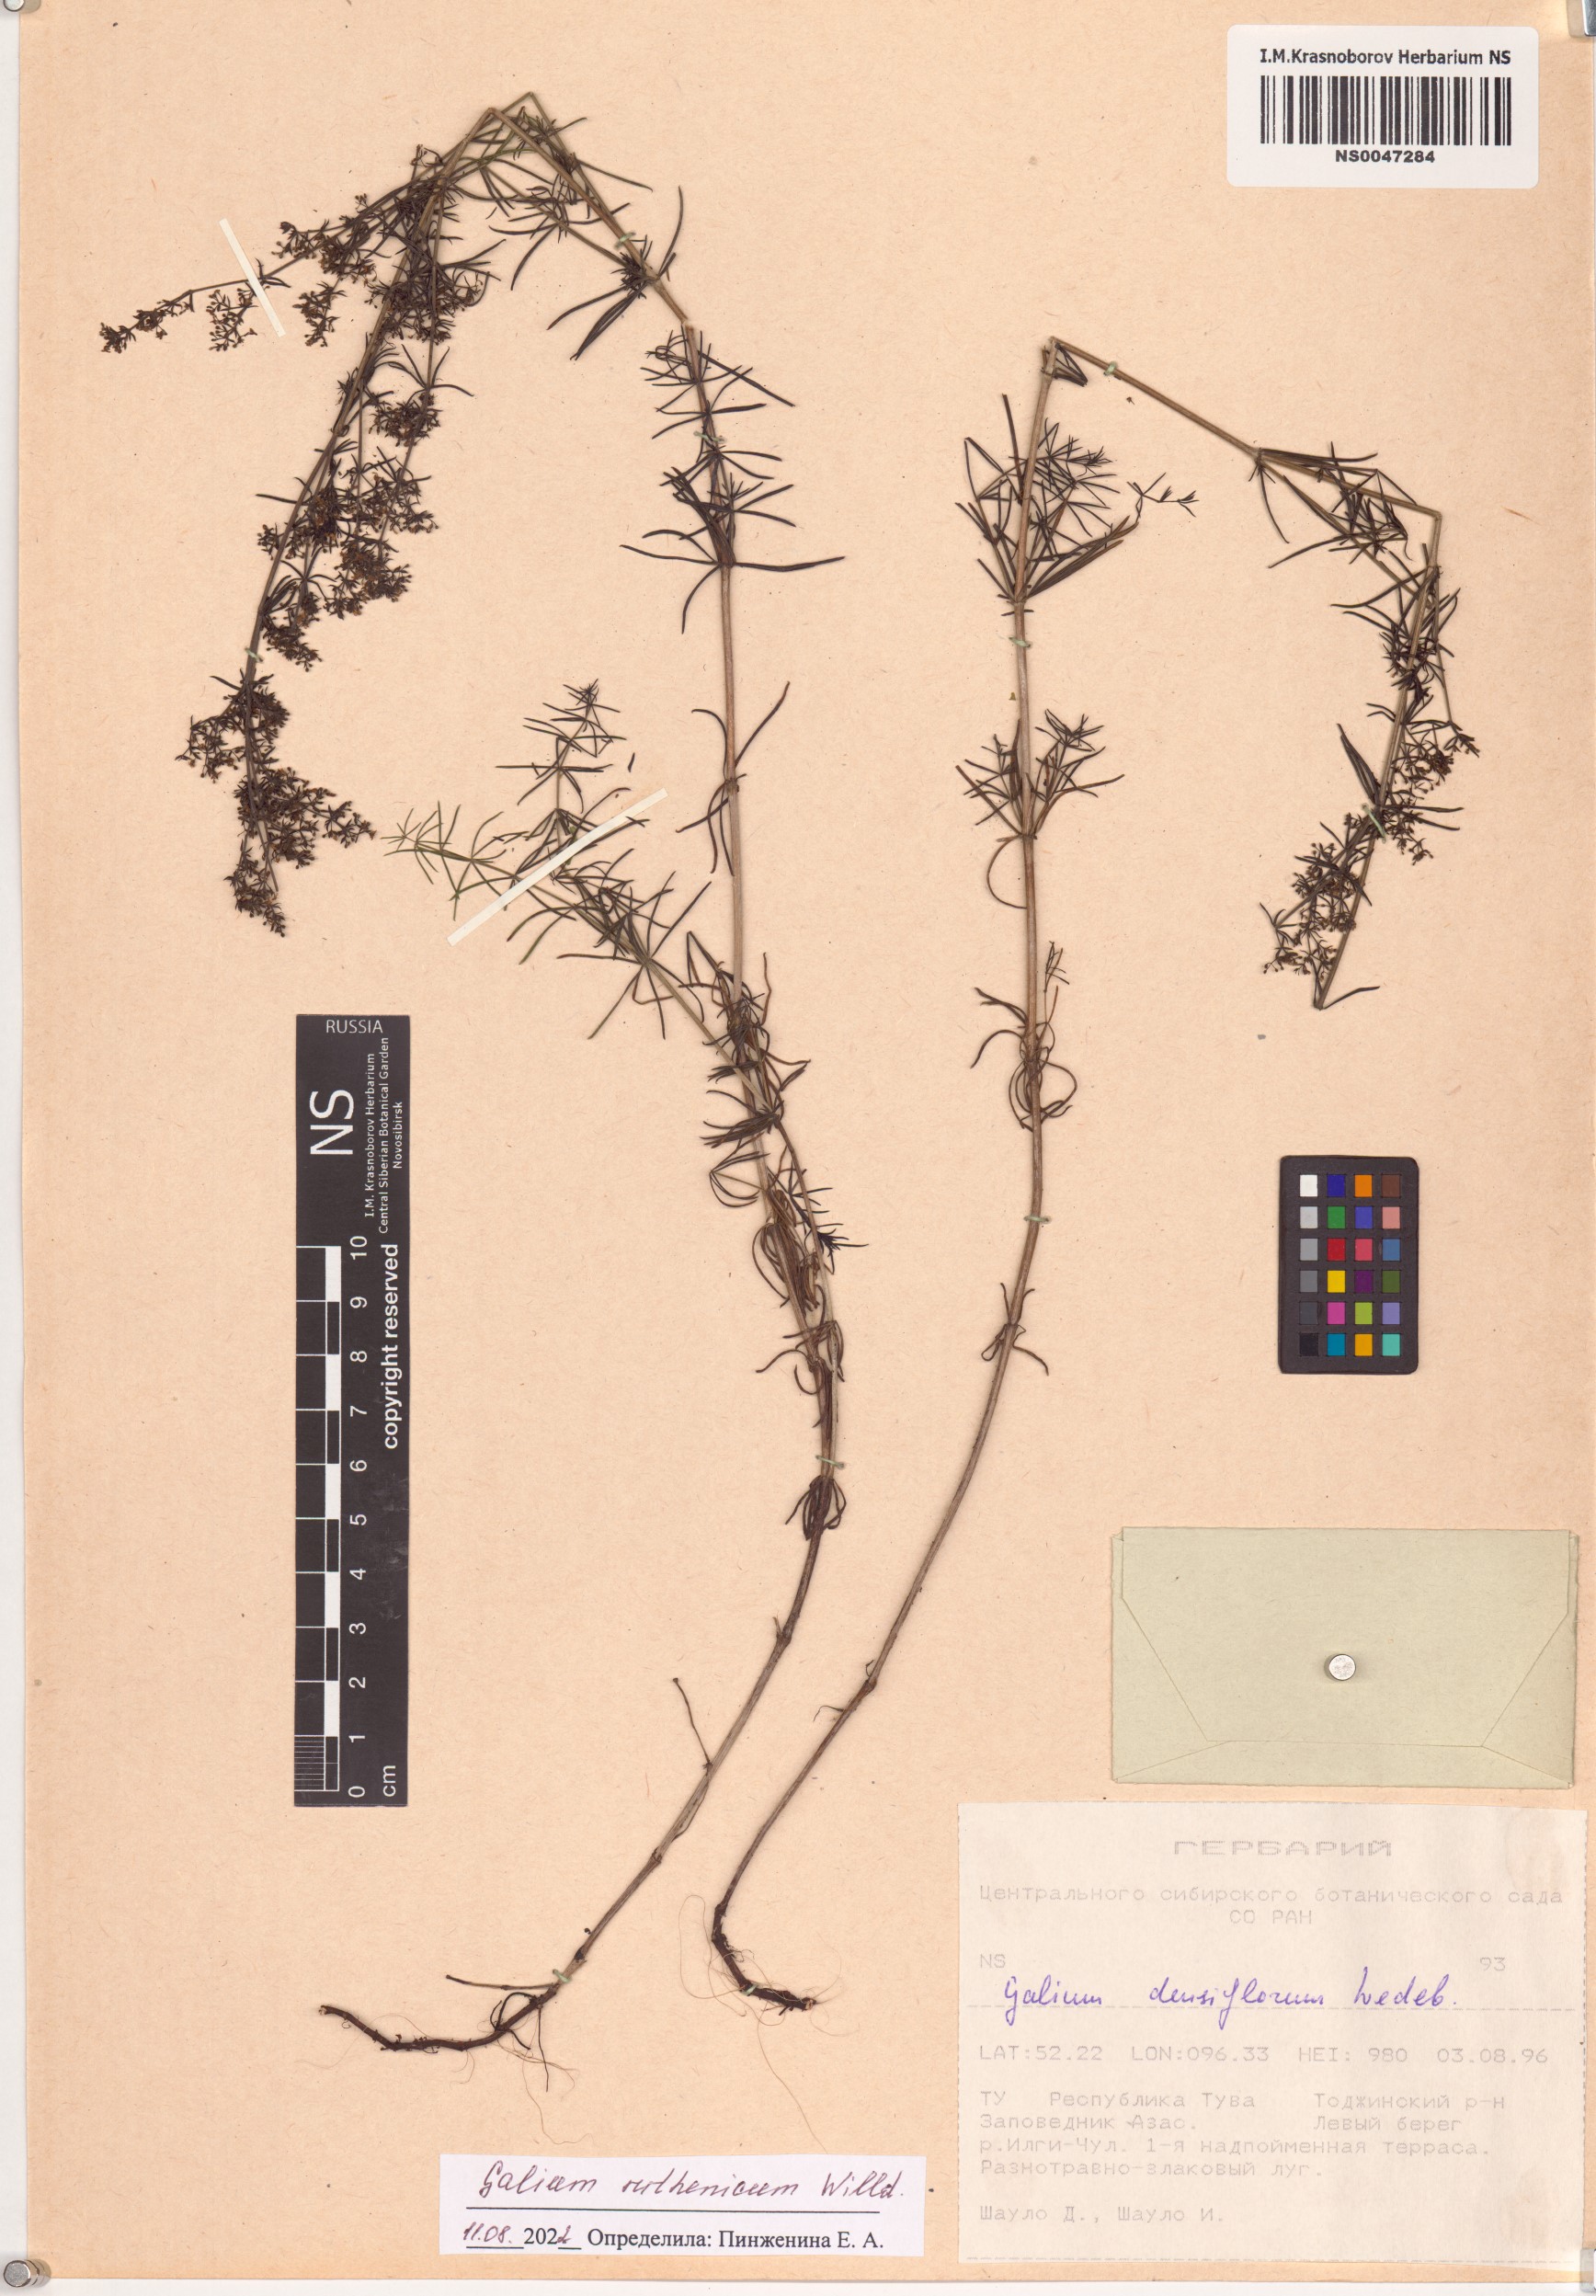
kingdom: Plantae
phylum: Tracheophyta
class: Magnoliopsida
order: Gentianales
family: Rubiaceae
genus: Galium
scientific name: Galium verum
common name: Lady's bedstraw
